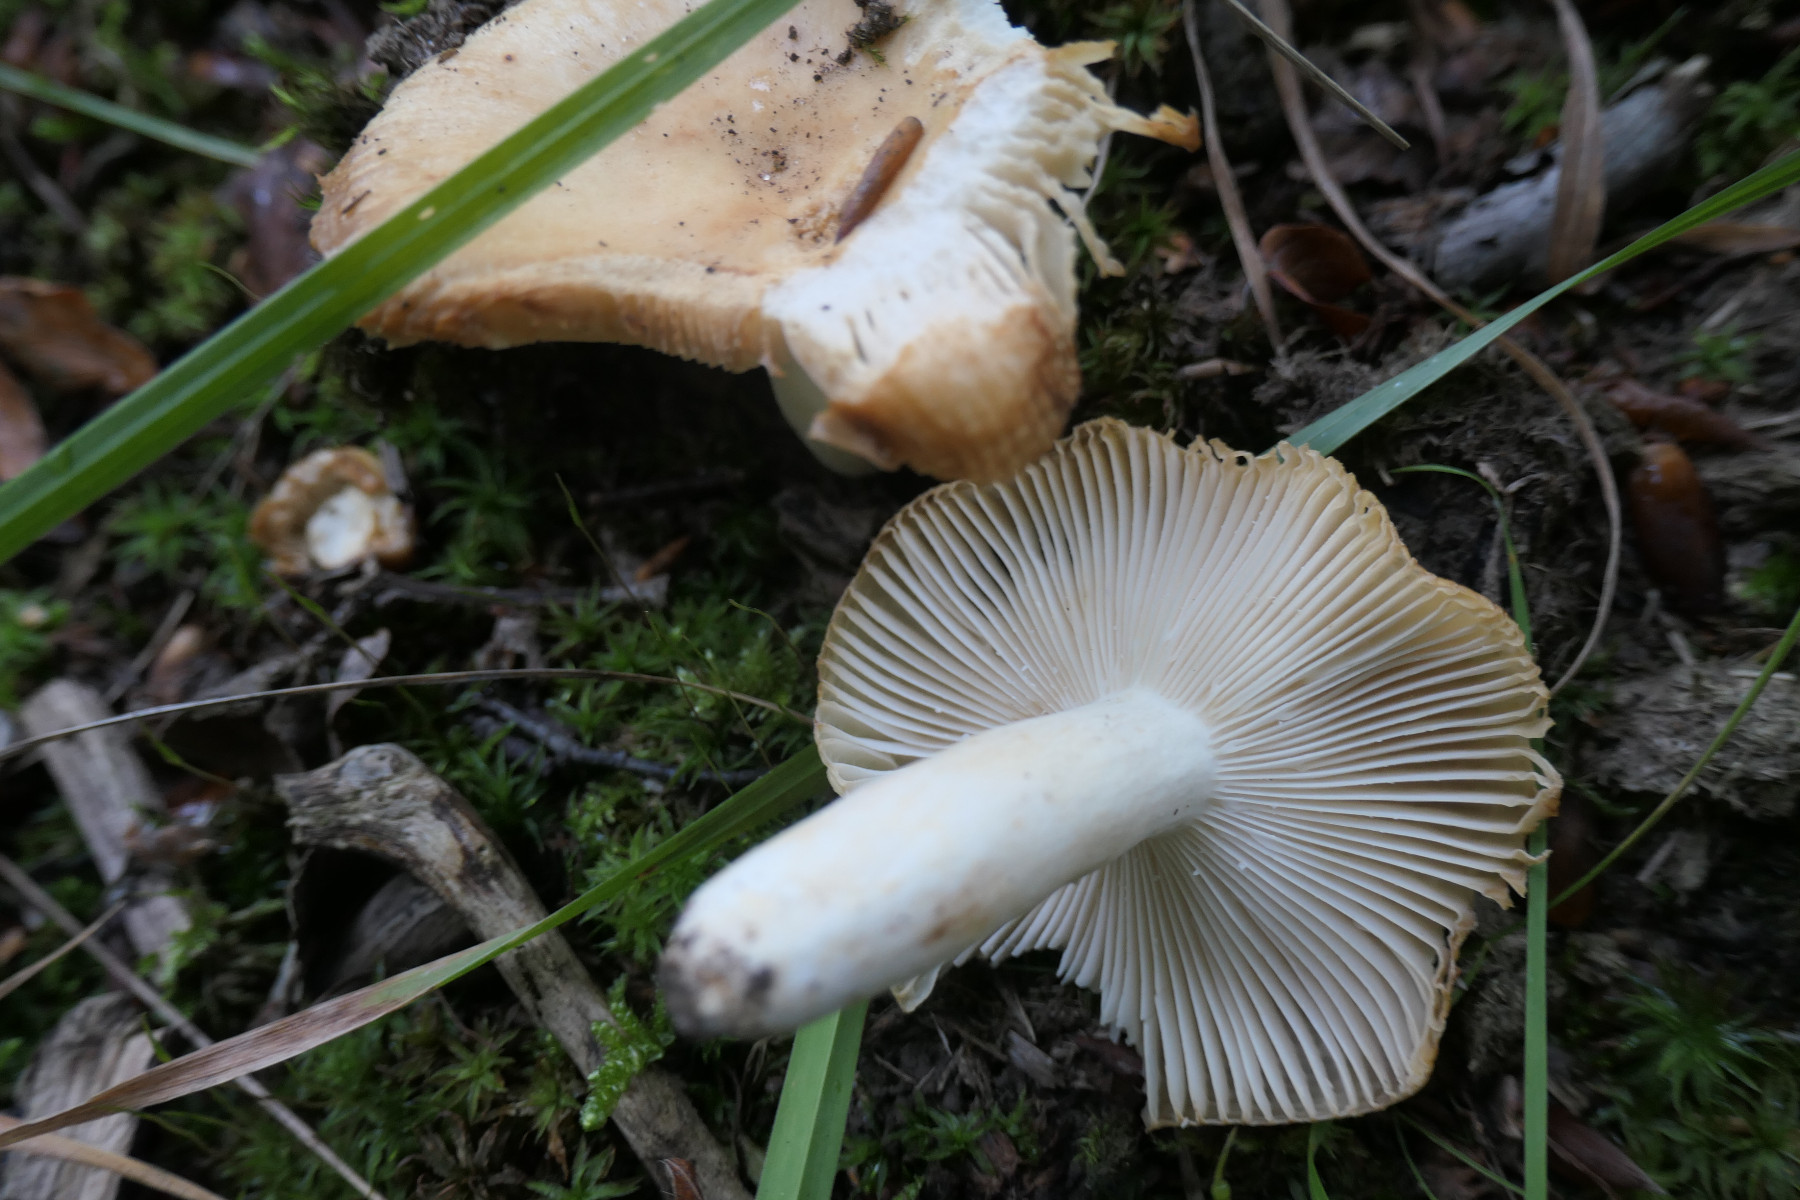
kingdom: Fungi
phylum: Basidiomycota
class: Agaricomycetes
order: Russulales
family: Russulaceae
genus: Russula
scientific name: Russula farinipes
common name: gul kam-skørhat
